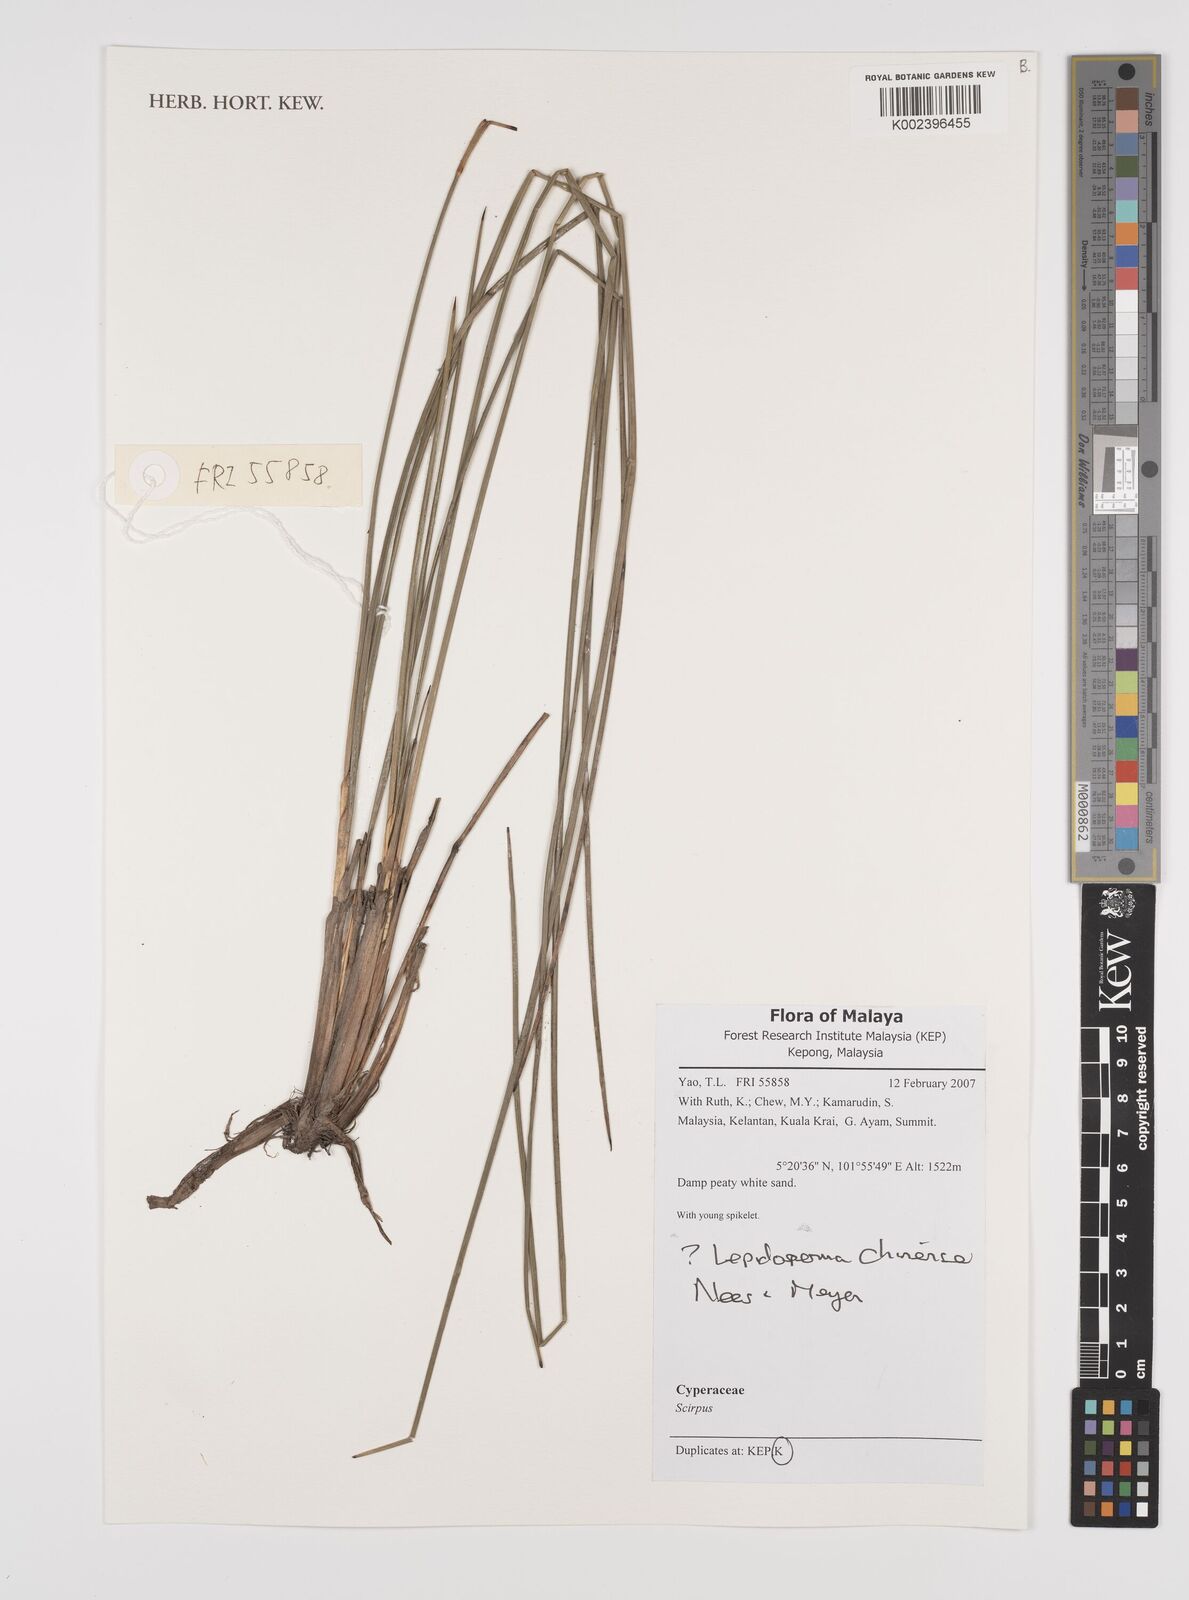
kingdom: Plantae
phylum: Tracheophyta
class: Liliopsida
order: Poales
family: Cyperaceae
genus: Lepidosperma
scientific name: Lepidosperma chinense
